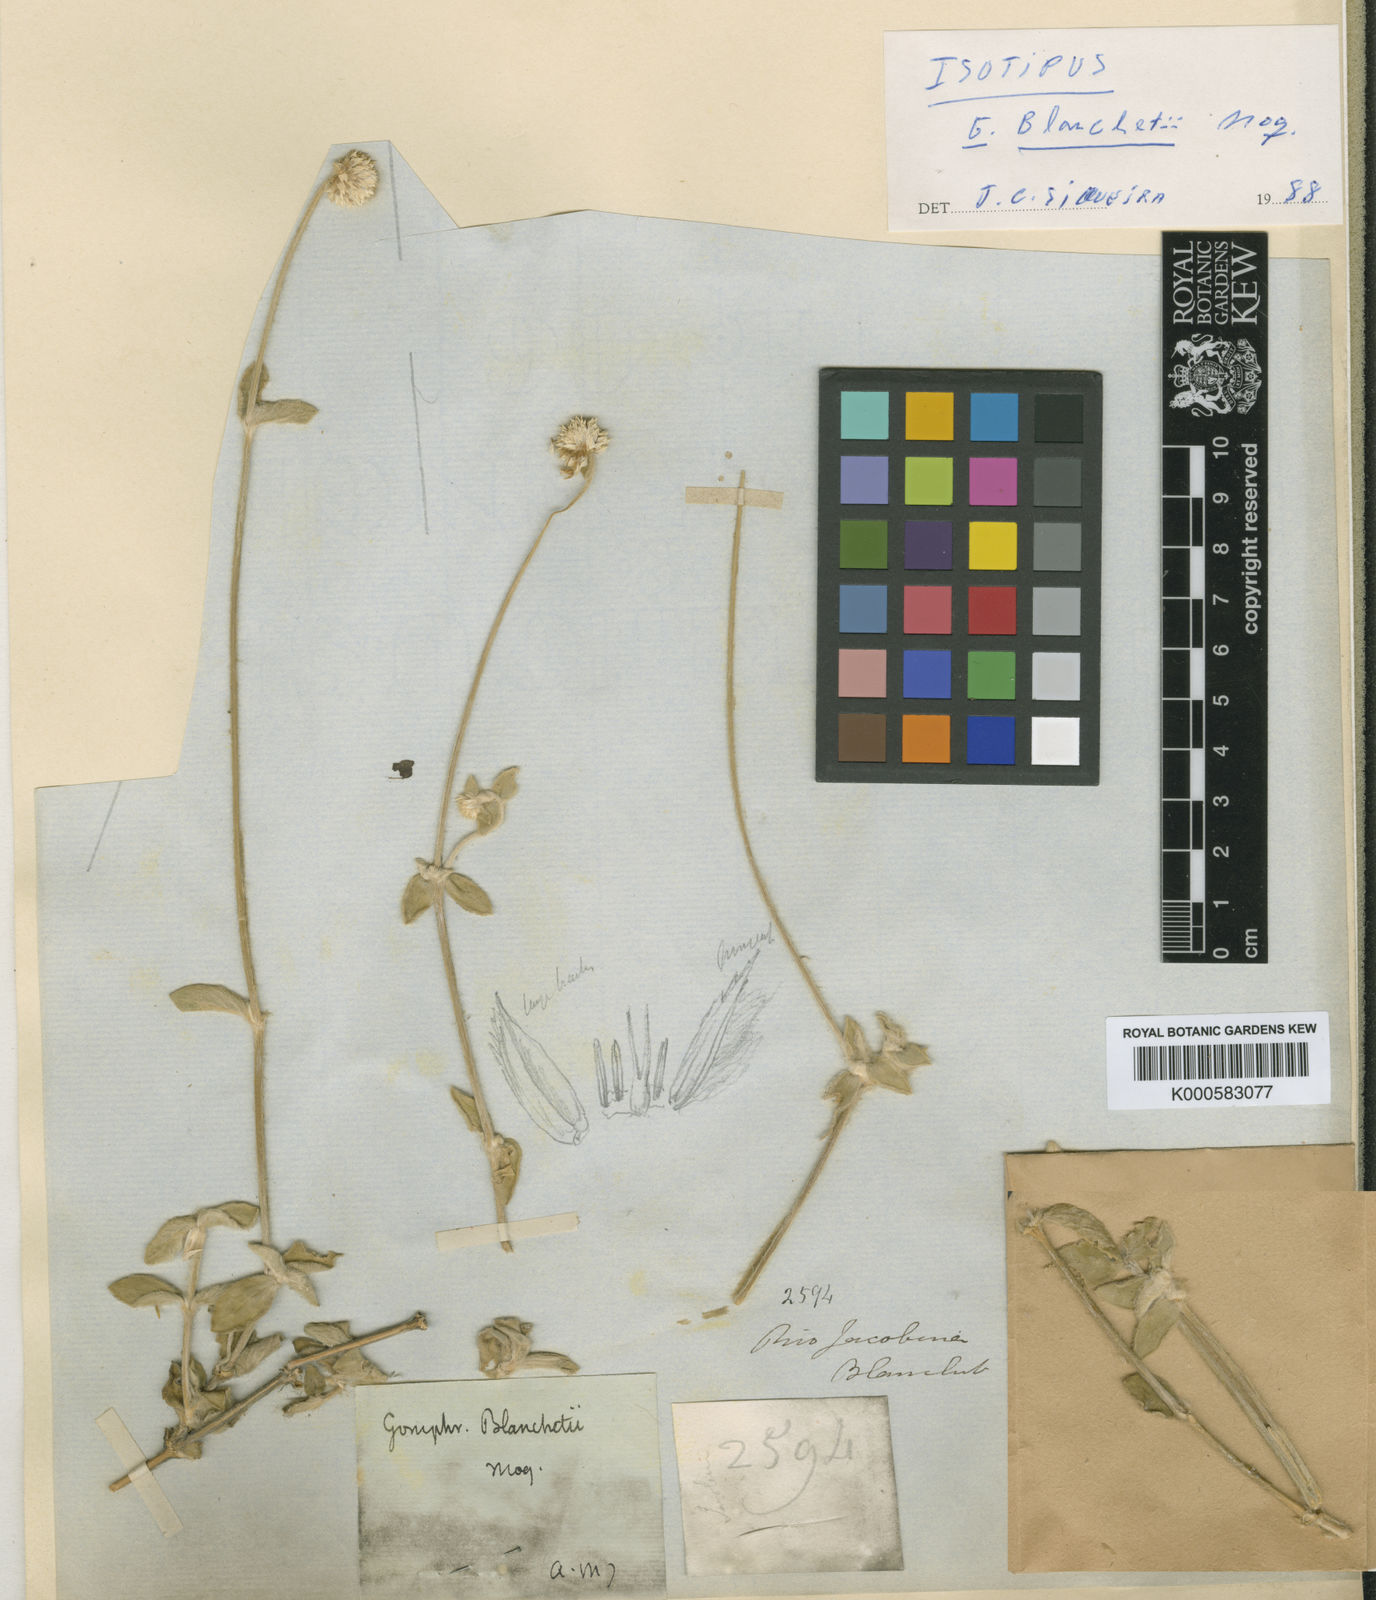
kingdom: Plantae
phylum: Tracheophyta
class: Magnoliopsida
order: Caryophyllales
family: Amaranthaceae
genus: Gomphrena
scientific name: Gomphrena demissa
